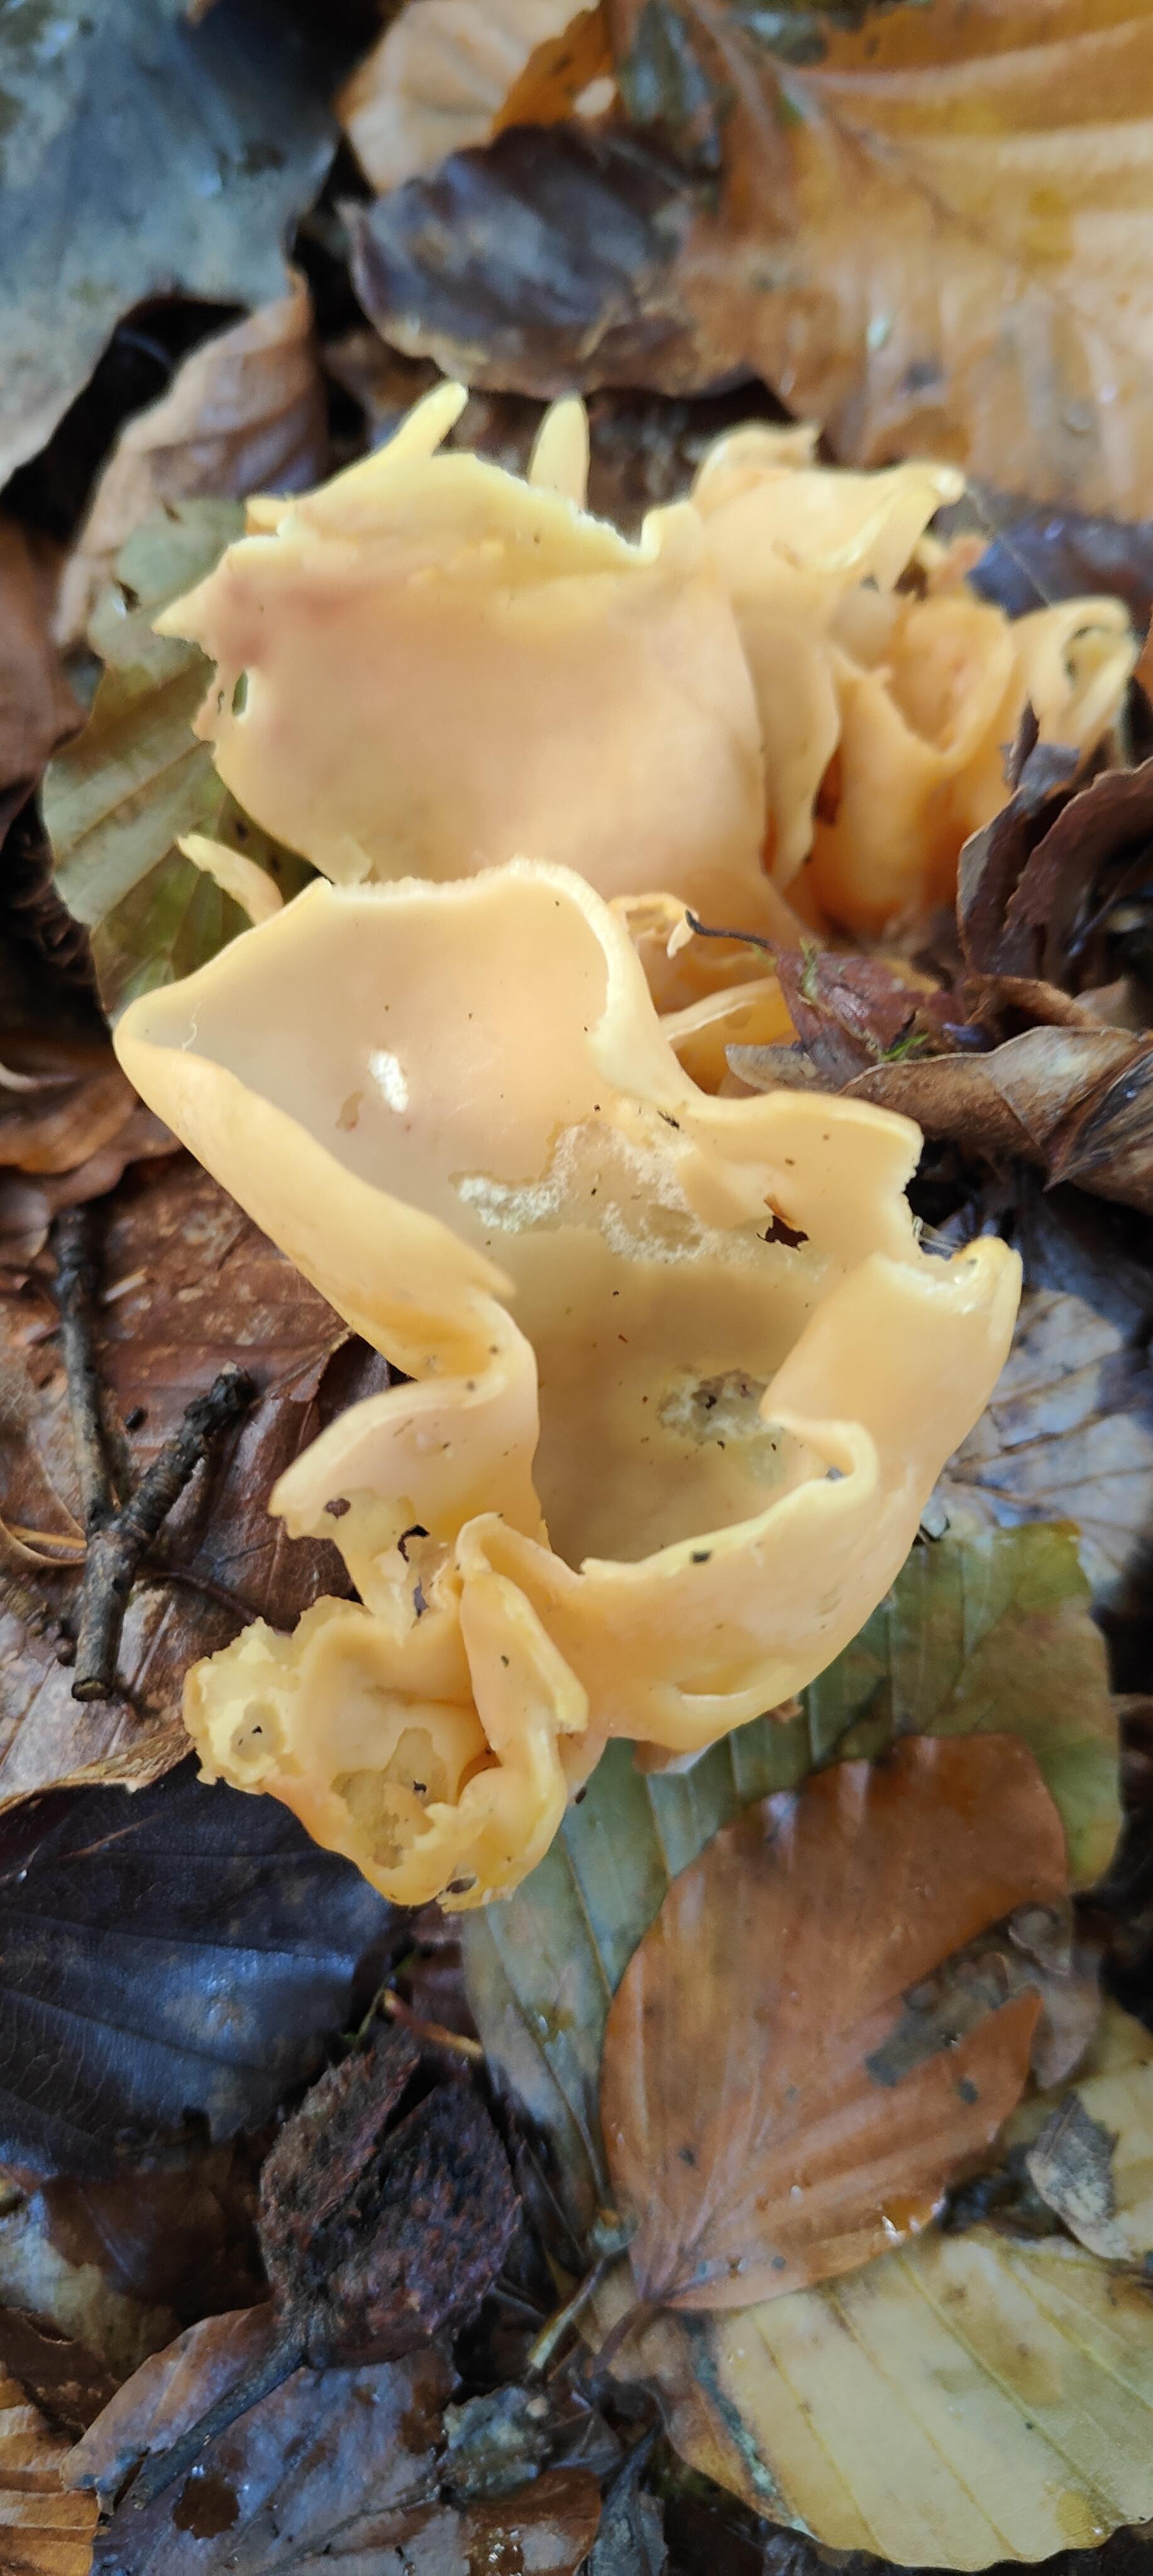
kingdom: Fungi
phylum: Ascomycota
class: Pezizomycetes
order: Pezizales
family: Otideaceae
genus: Otidea
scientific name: Otidea onotica
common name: æsel-ørebæger
